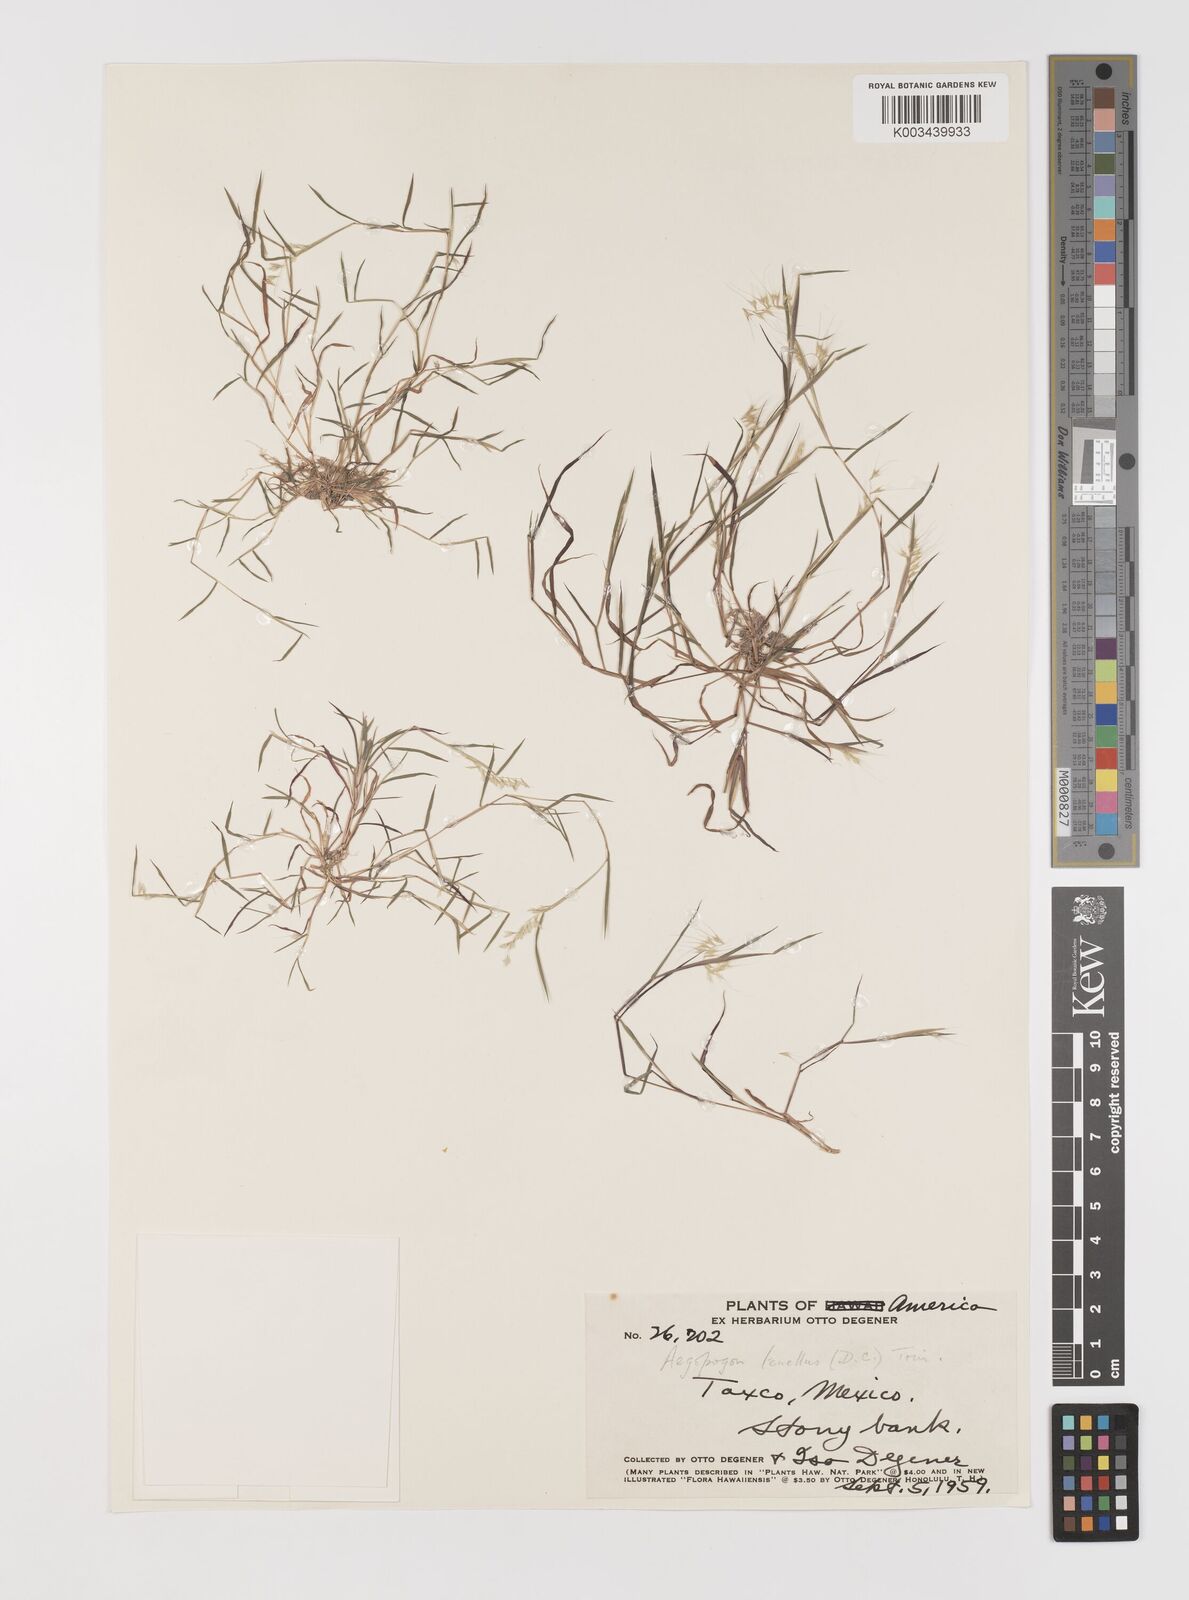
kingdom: Plantae
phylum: Tracheophyta
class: Liliopsida
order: Poales
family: Poaceae
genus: Muhlenbergia
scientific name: Muhlenbergia uniseta
